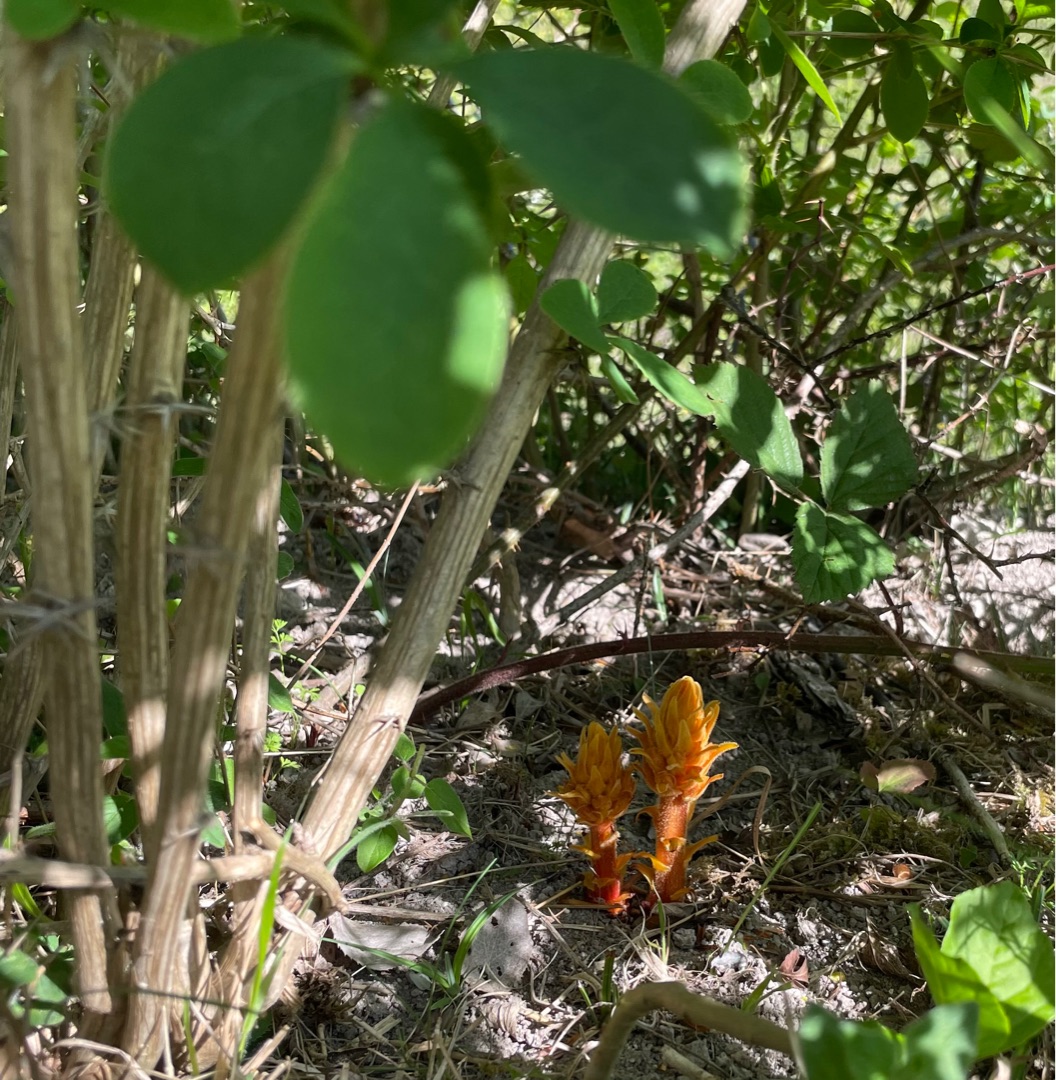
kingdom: Plantae
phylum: Tracheophyta
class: Magnoliopsida
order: Lamiales
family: Orobanchaceae
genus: Orobanche
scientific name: Orobanche lucorum
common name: Berberis-gyvelkvæler
